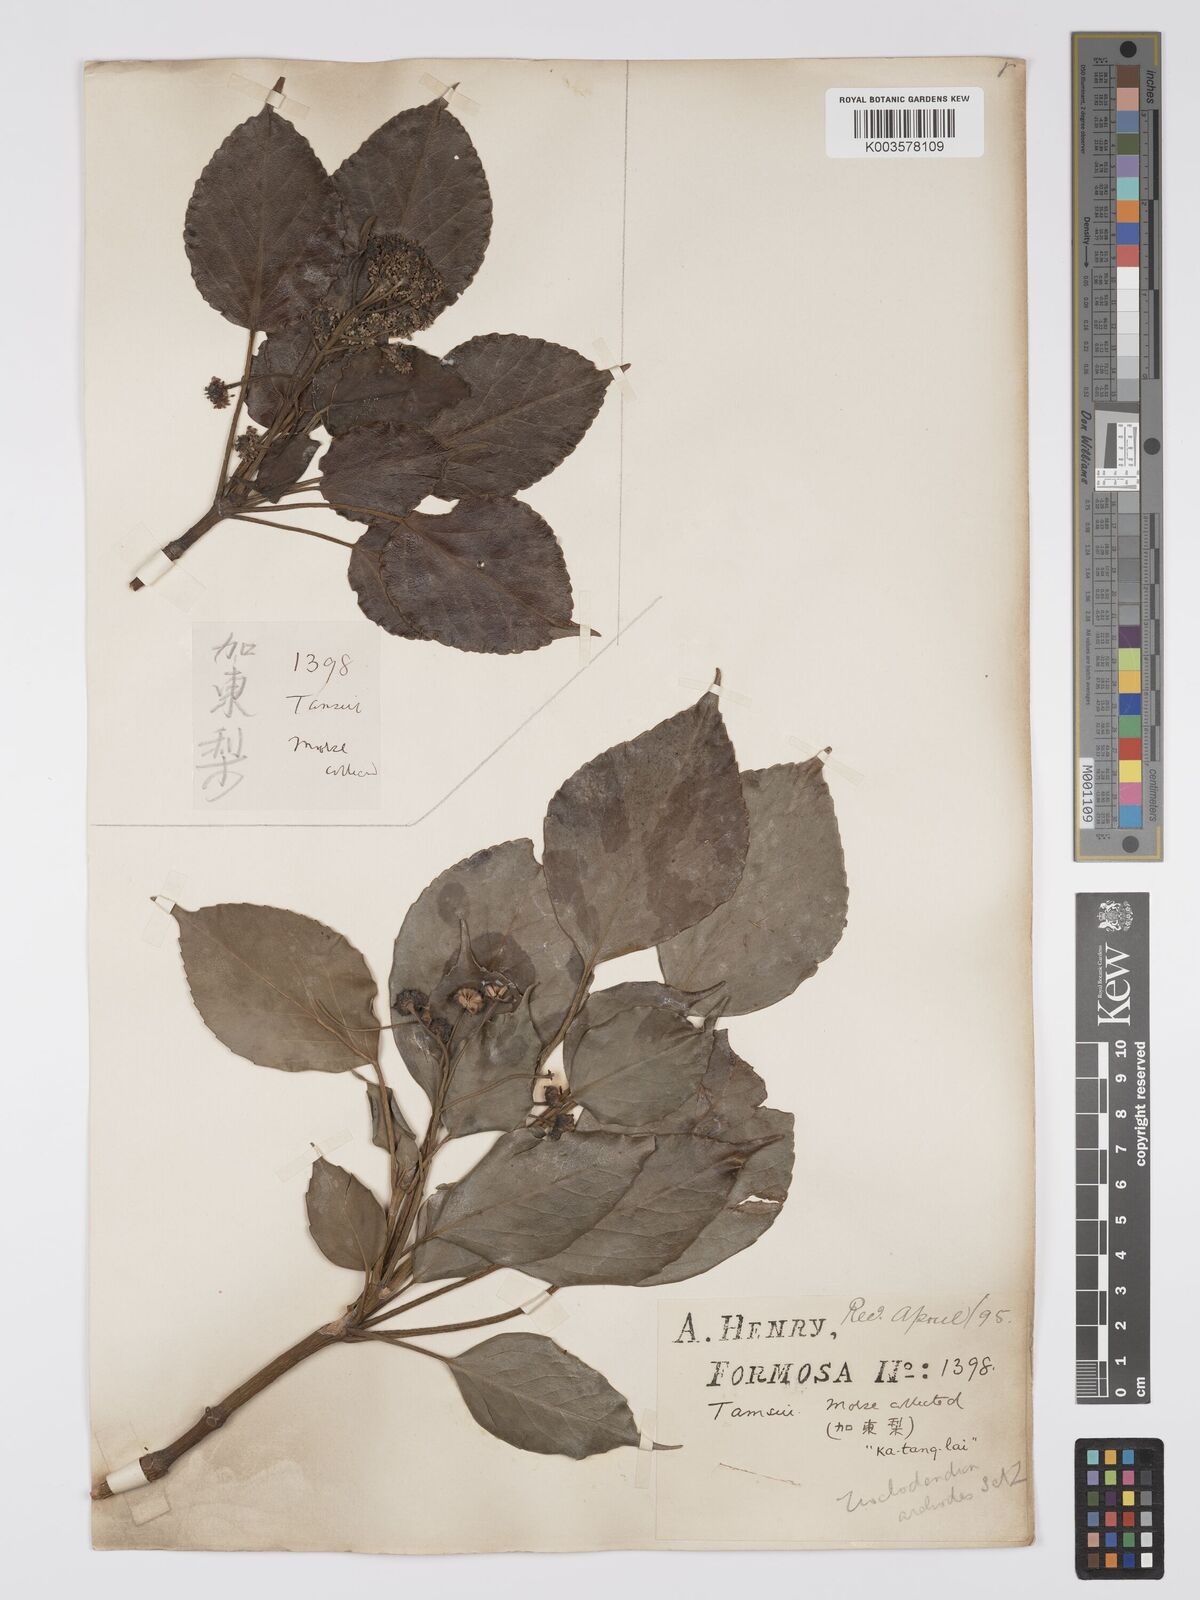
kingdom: Plantae
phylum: Tracheophyta
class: Magnoliopsida
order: Trochodendrales
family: Trochodendraceae
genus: Trochodendron
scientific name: Trochodendron
